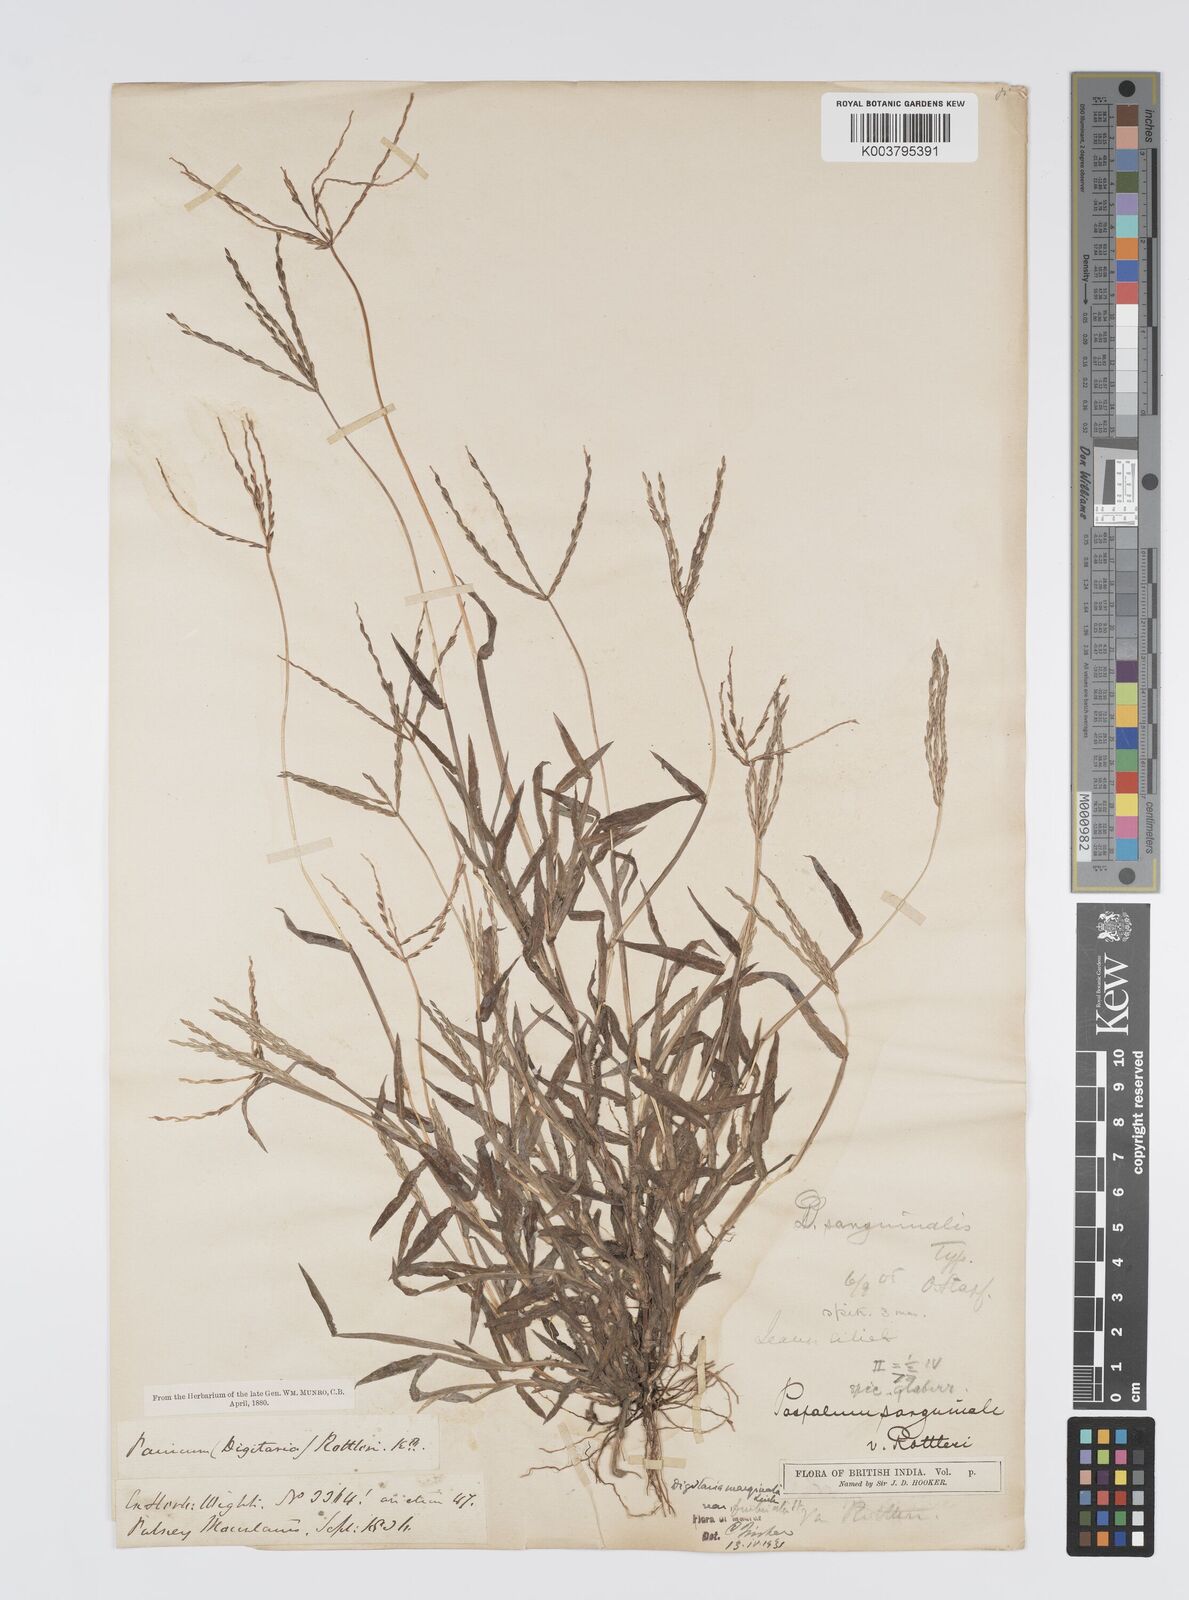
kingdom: Plantae
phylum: Tracheophyta
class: Liliopsida
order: Poales
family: Poaceae
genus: Digitaria
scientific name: Digitaria ciliaris
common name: Tropical finger-grass
